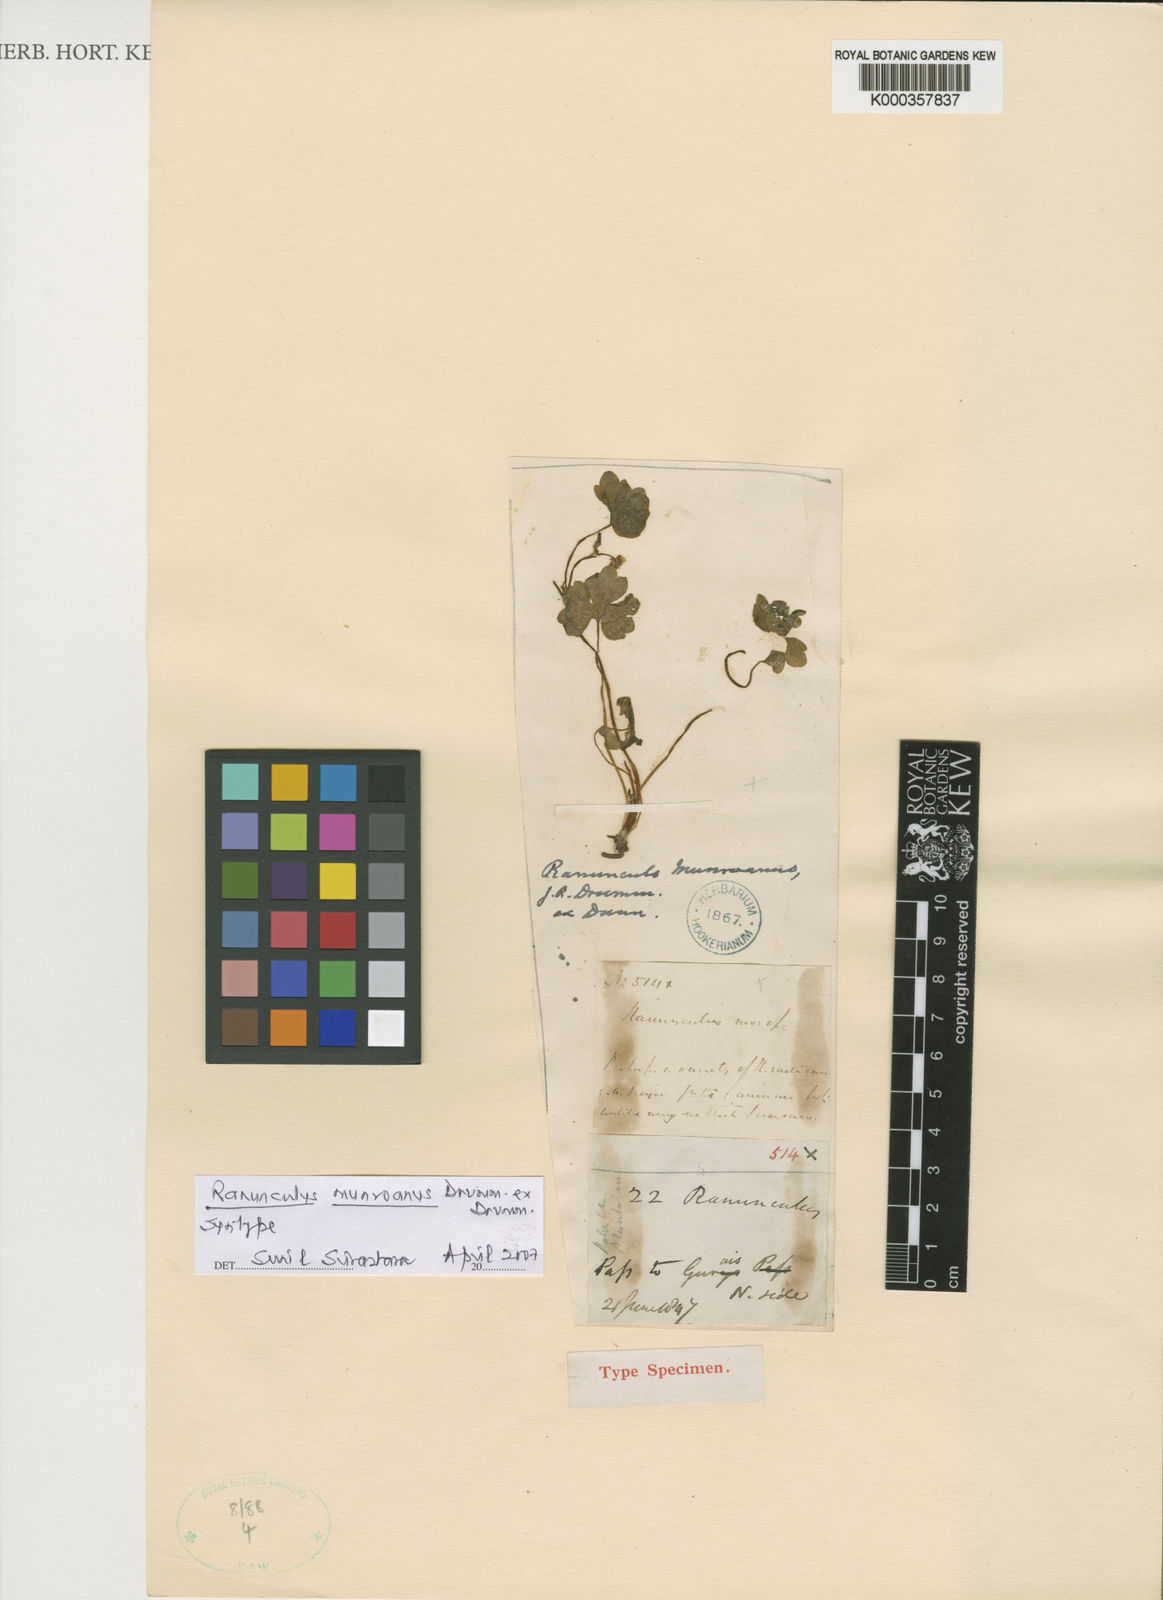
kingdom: Plantae
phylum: Tracheophyta
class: Magnoliopsida
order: Ranunculales
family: Ranunculaceae
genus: Ranunculus
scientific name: Ranunculus munroanus
